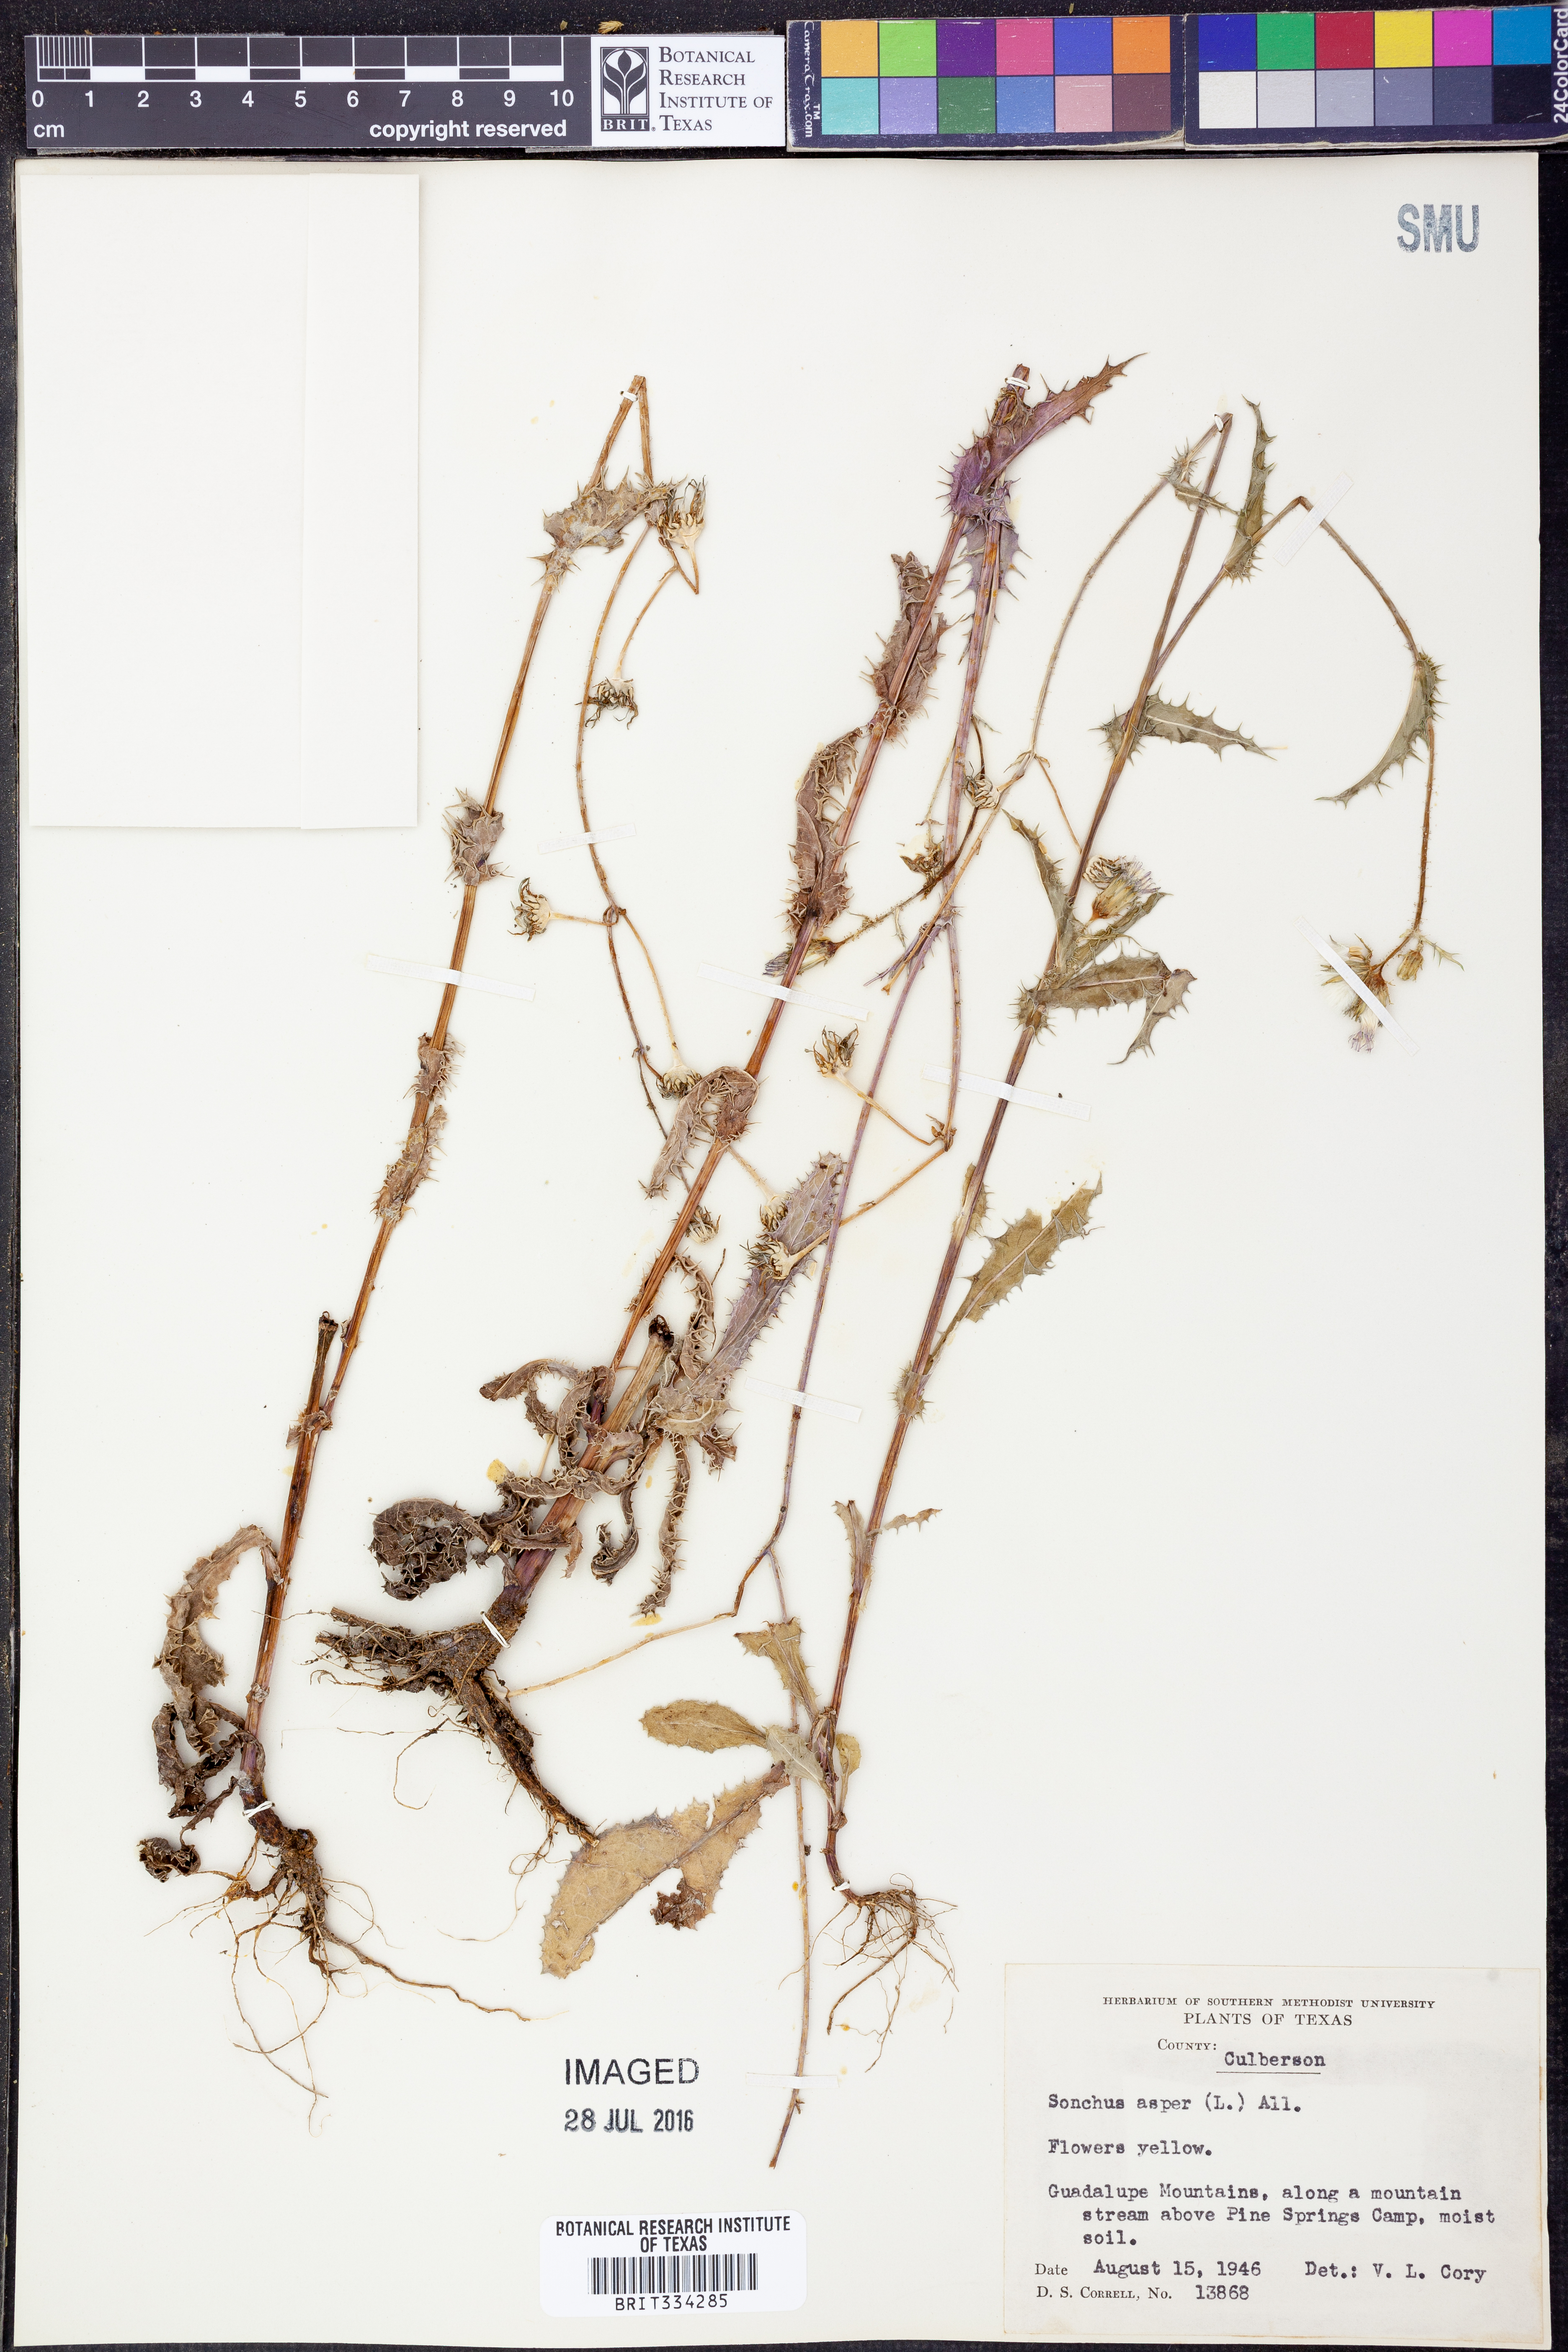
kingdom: Plantae
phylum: Tracheophyta
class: Magnoliopsida
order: Asterales
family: Asteraceae
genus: Sonchus
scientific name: Sonchus asper
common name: Prickly sow-thistle
